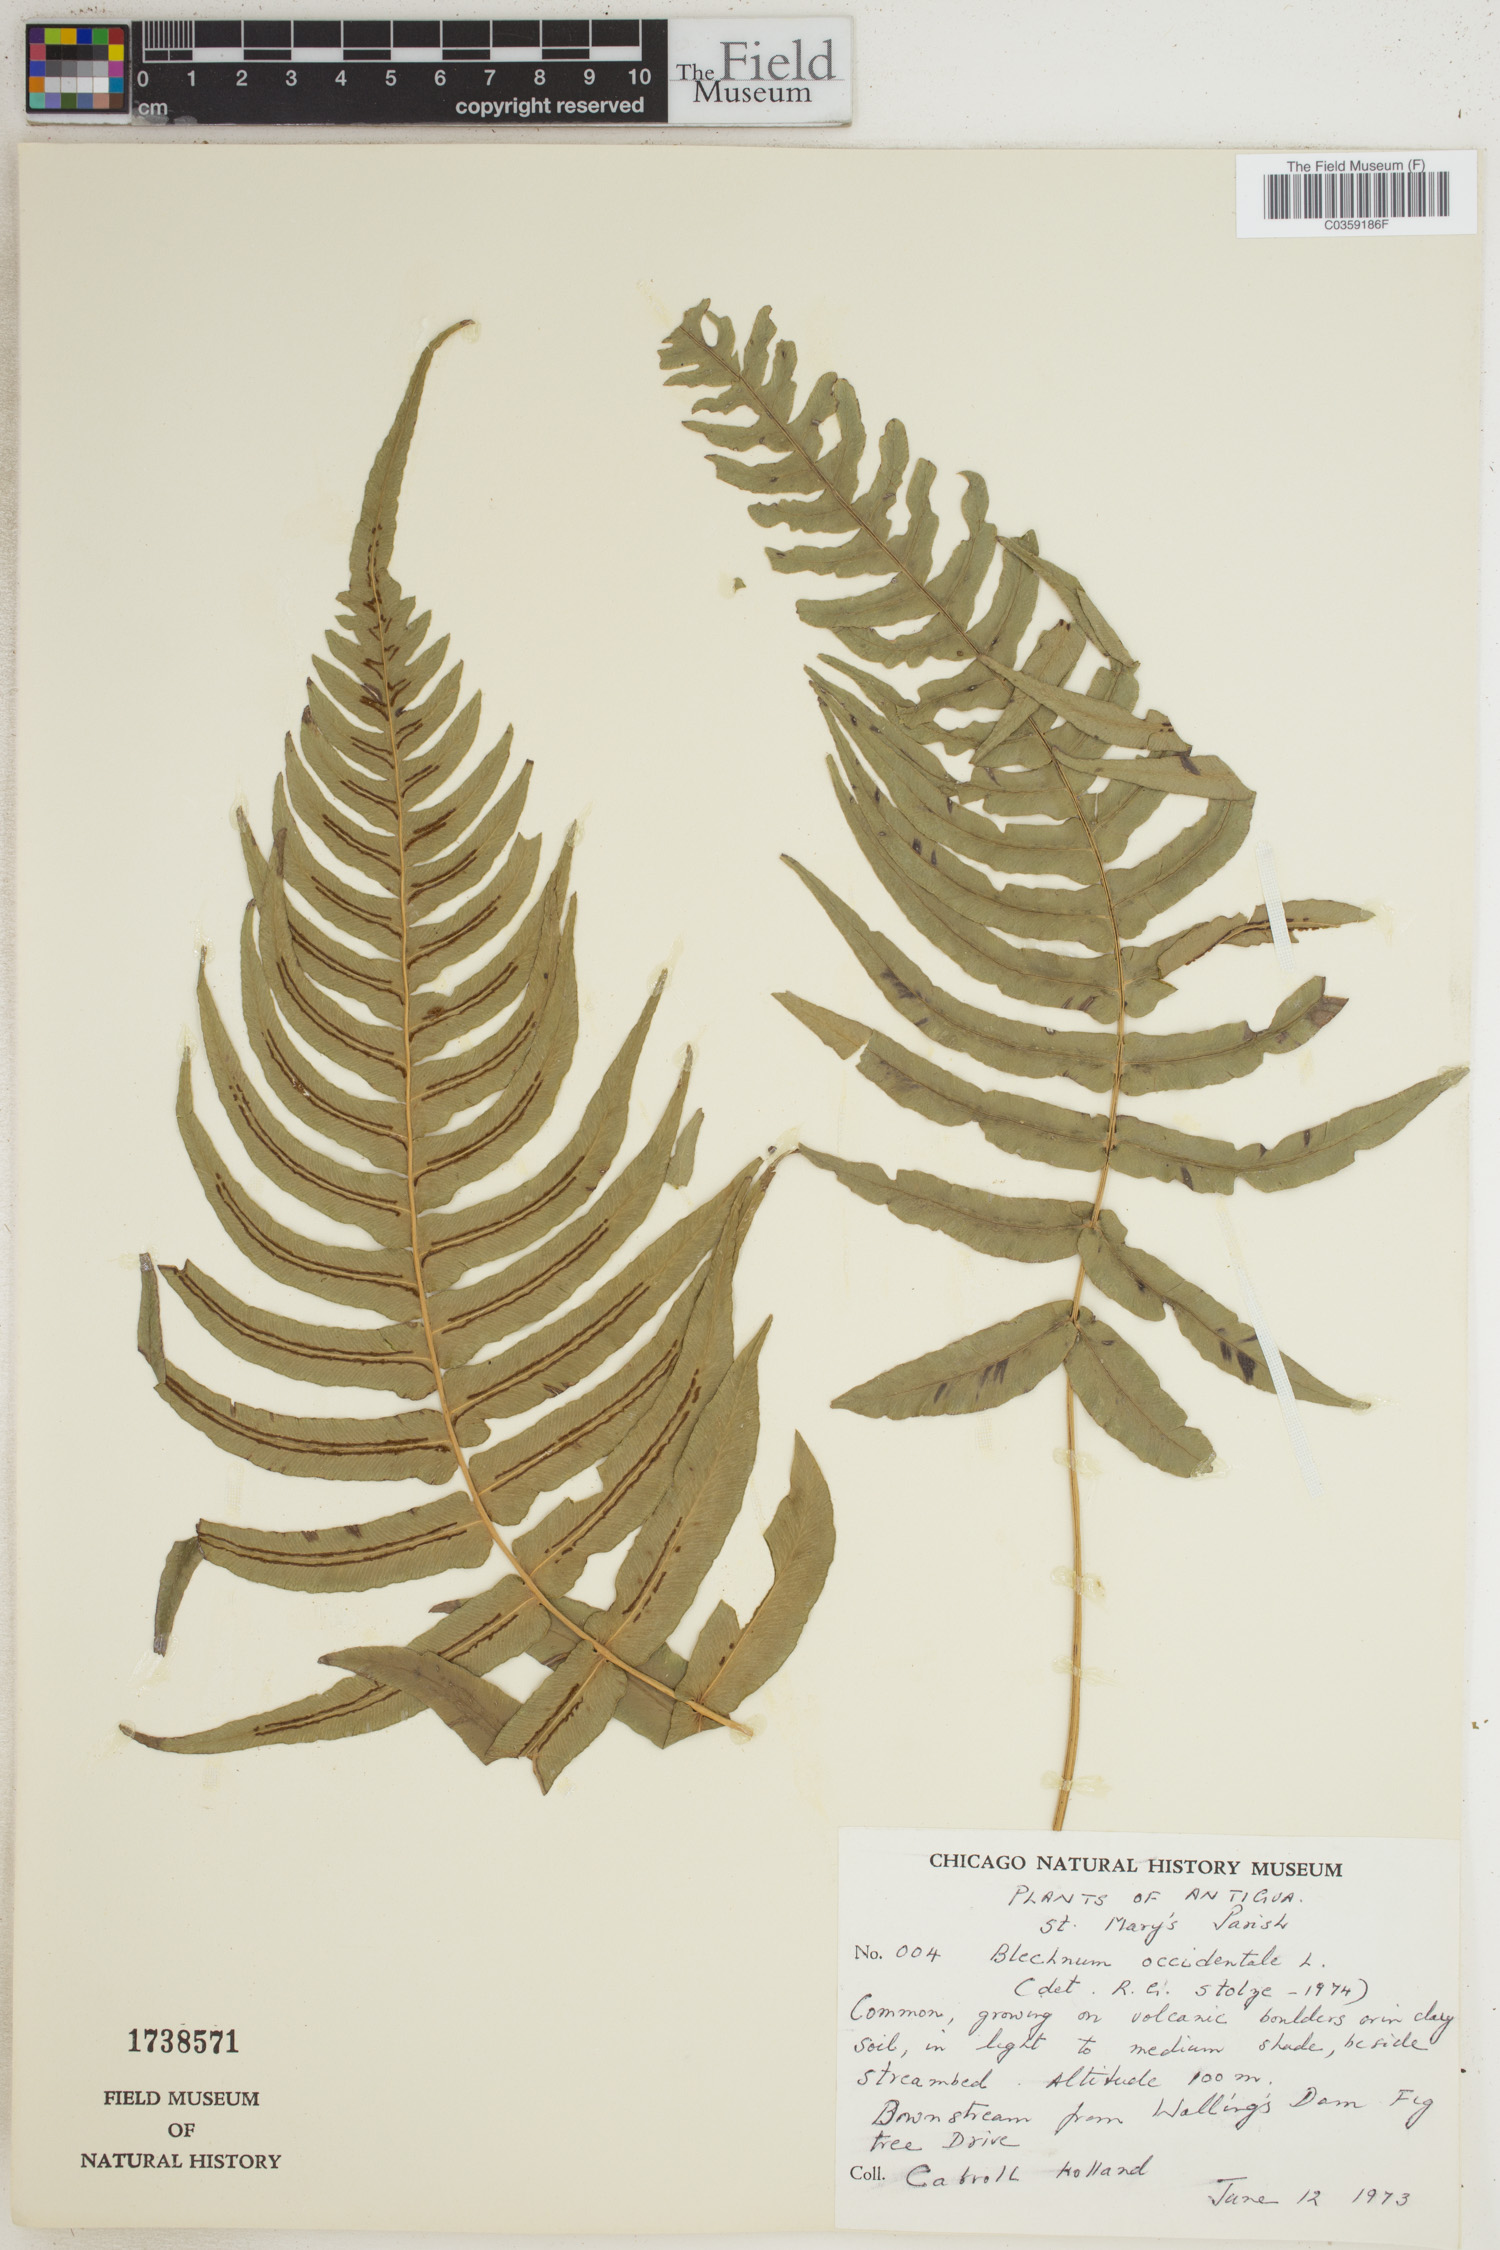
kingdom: Plantae
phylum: Tracheophyta
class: Polypodiopsida
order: Polypodiales
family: Blechnaceae
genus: Blechnum
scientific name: Blechnum occidentale
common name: Hammock fern
